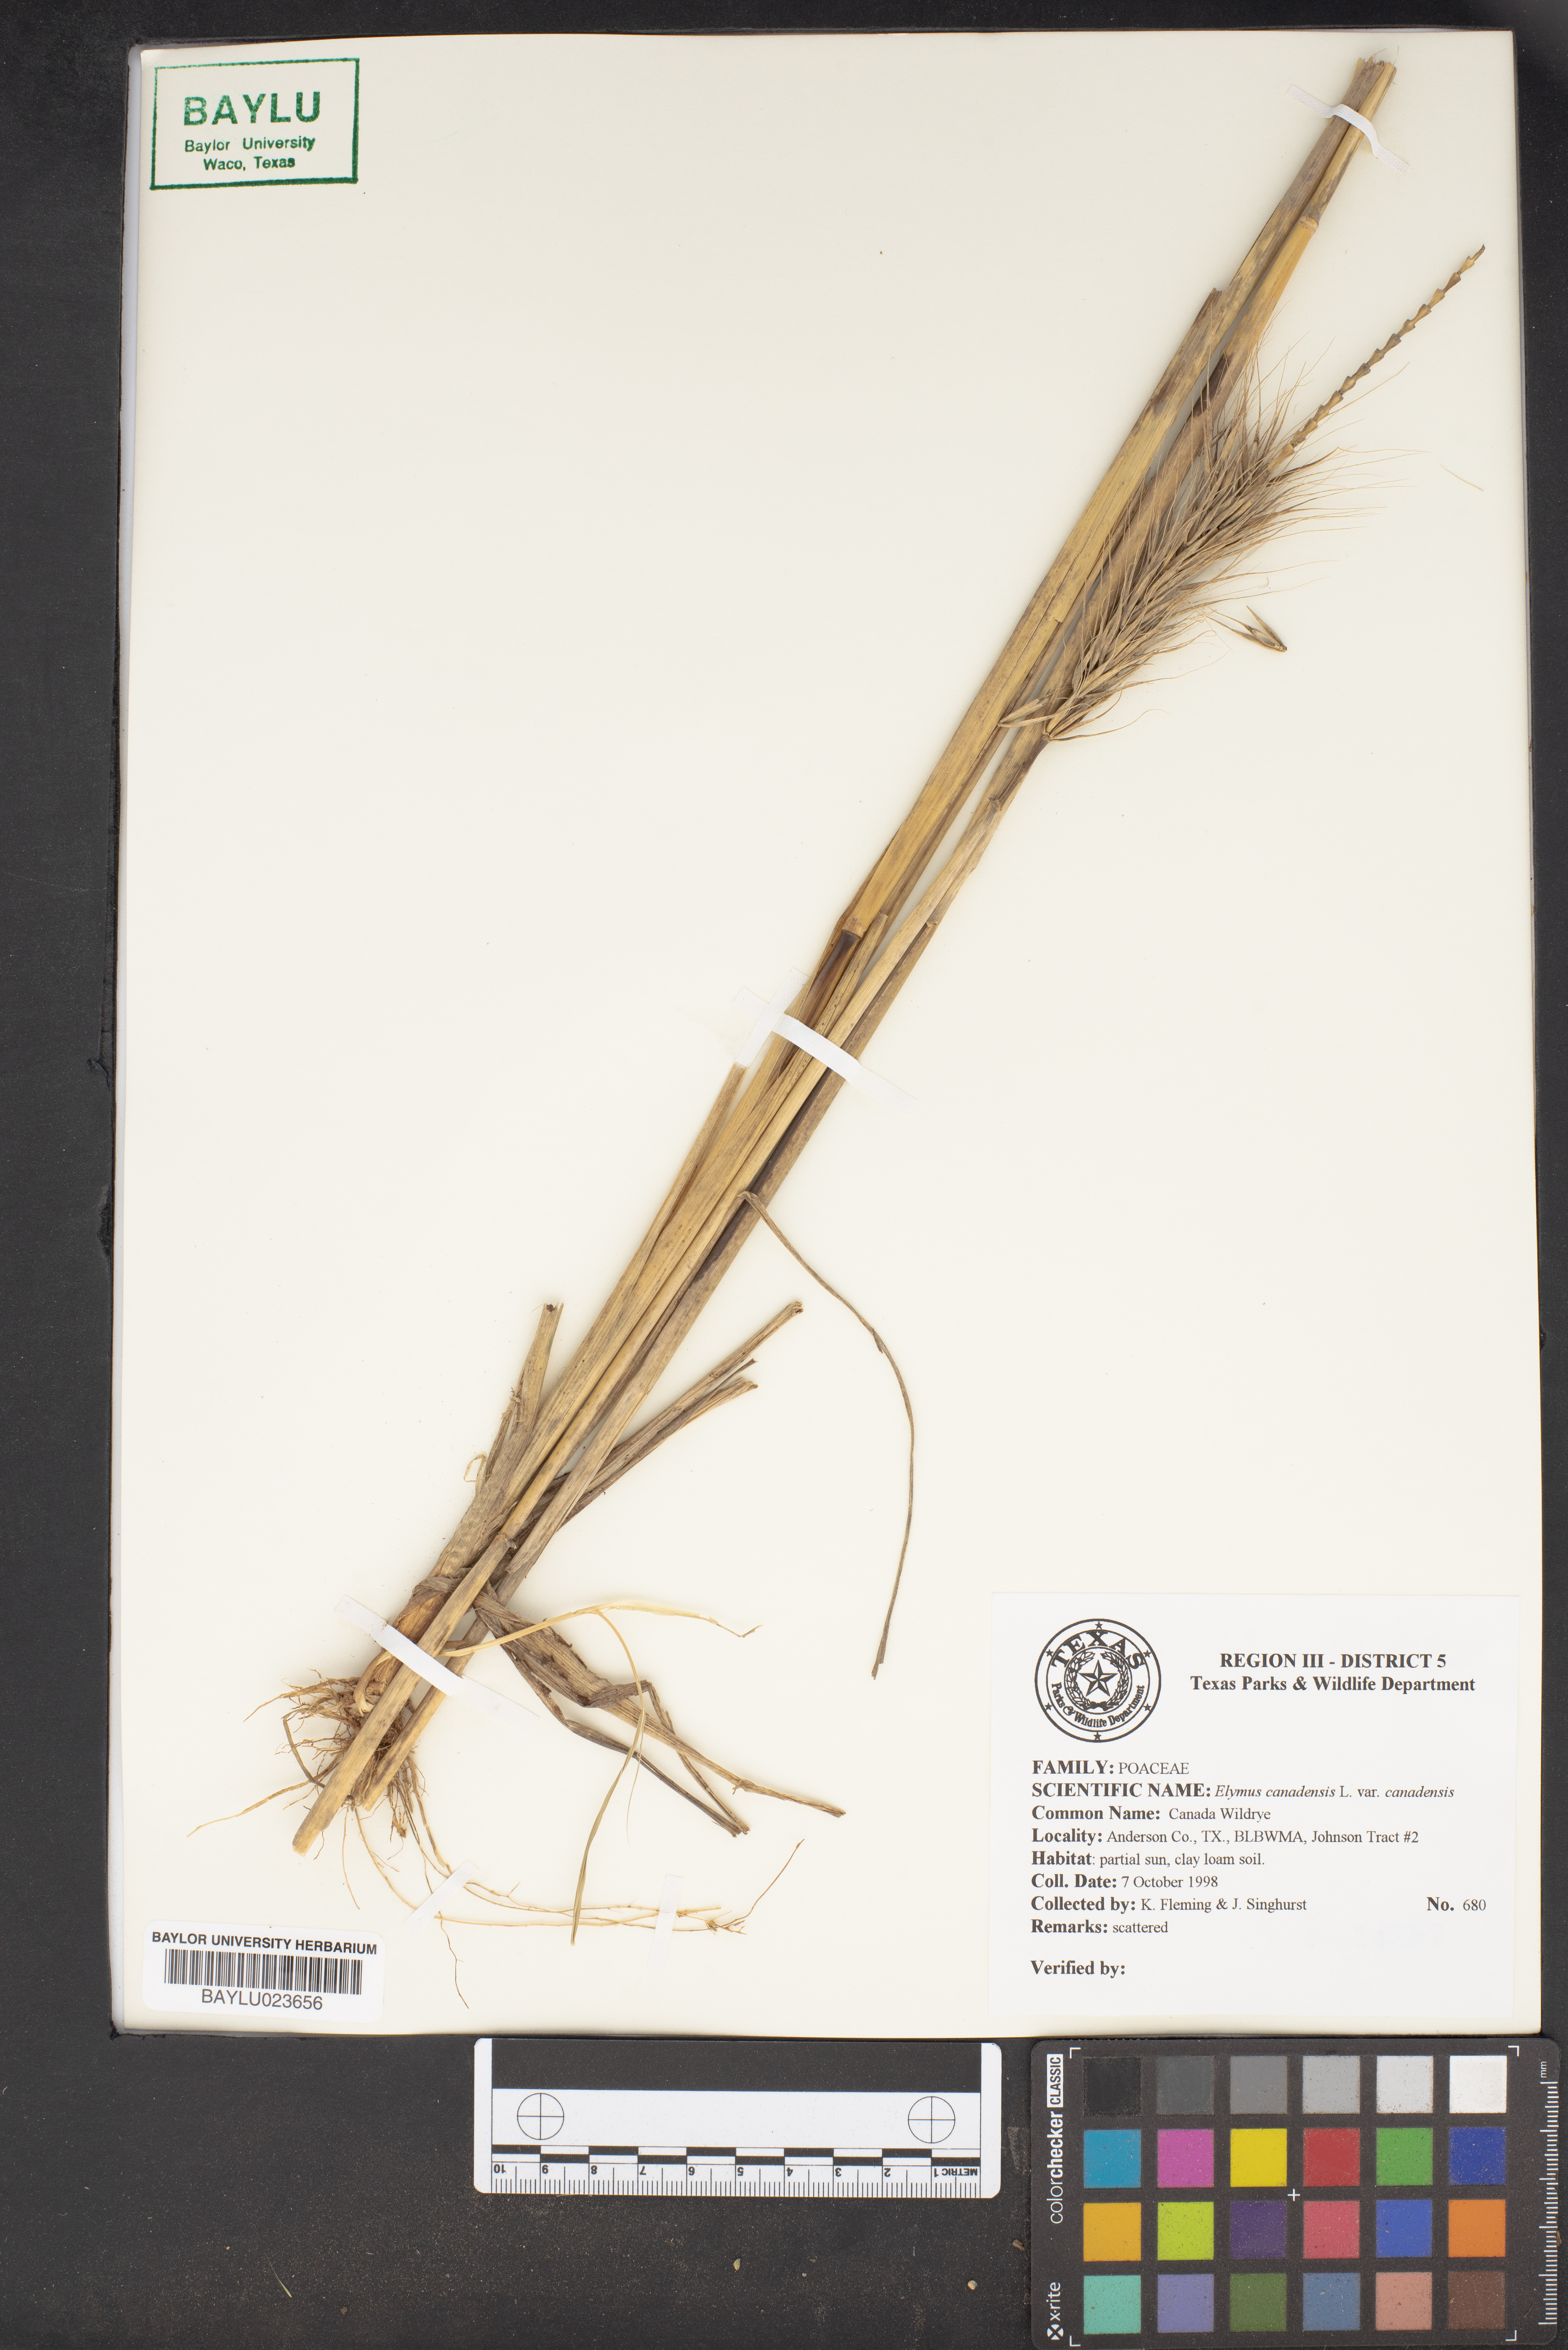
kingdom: Plantae
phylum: Tracheophyta
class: Liliopsida
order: Poales
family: Poaceae
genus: Elymus
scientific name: Elymus canadensis
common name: Canada wild rye
